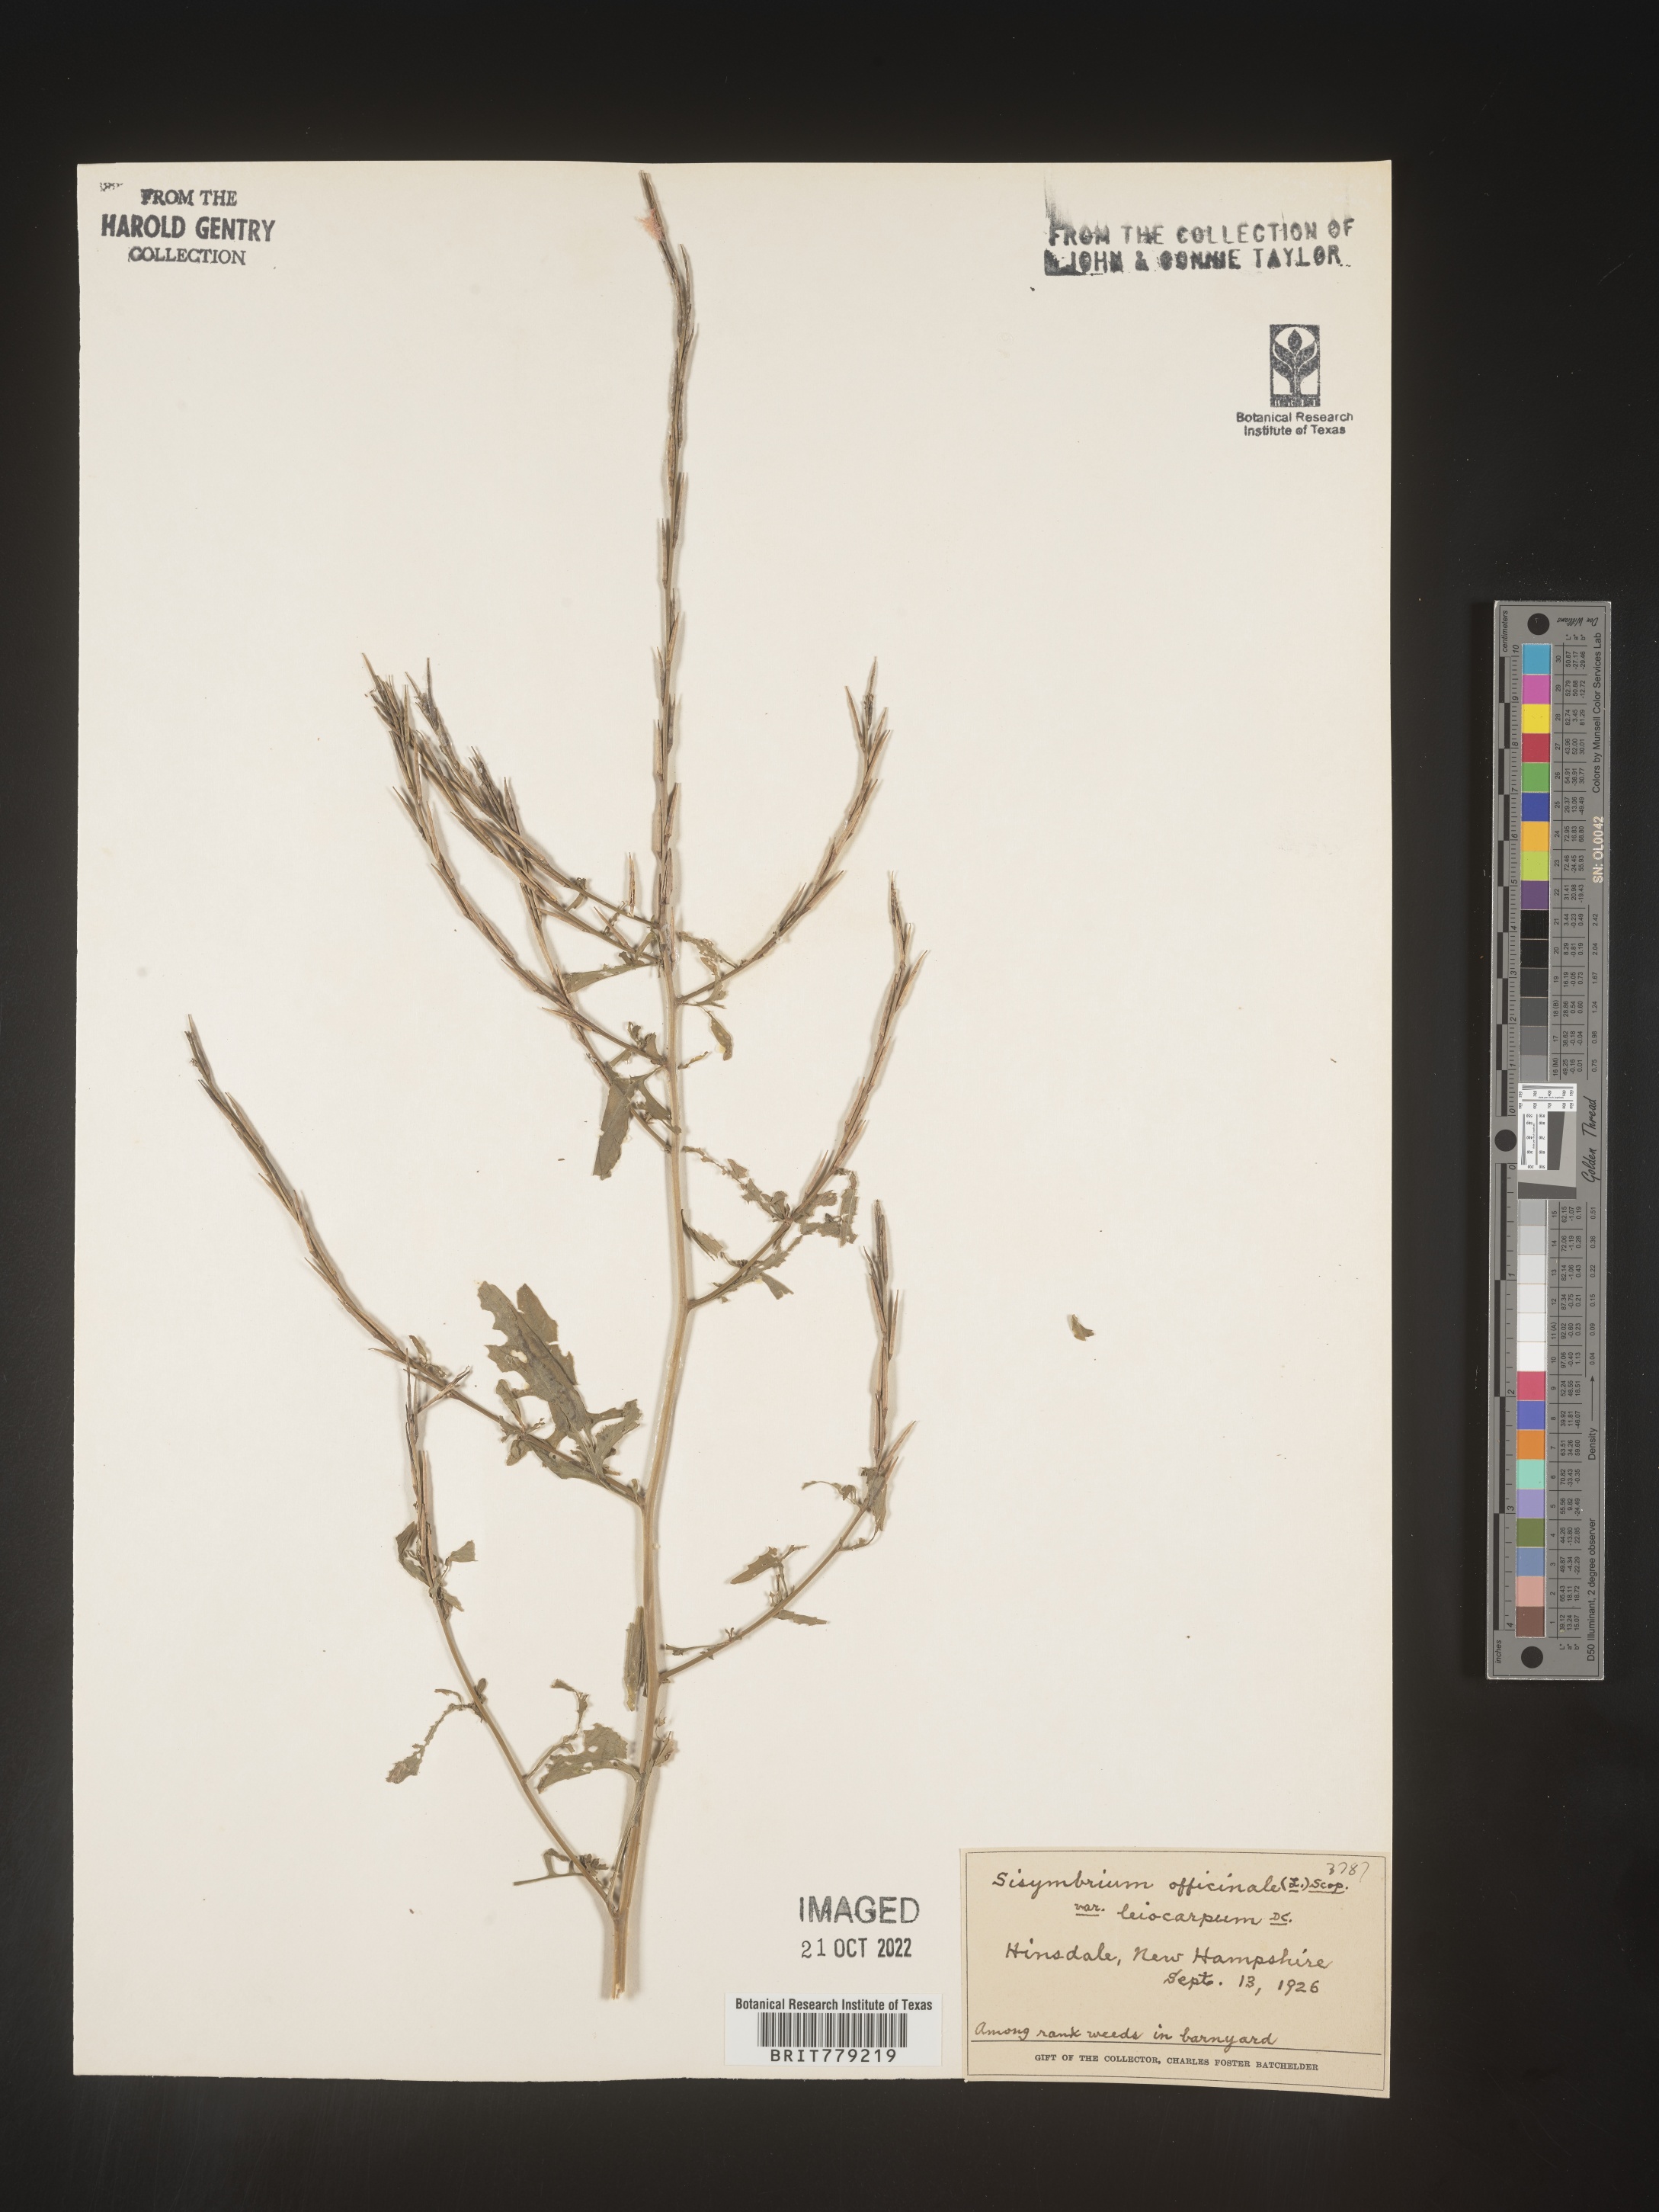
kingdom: Plantae
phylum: Tracheophyta
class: Magnoliopsida
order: Brassicales
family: Brassicaceae
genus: Sisymbrium
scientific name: Sisymbrium officinale
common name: Hedge mustard
